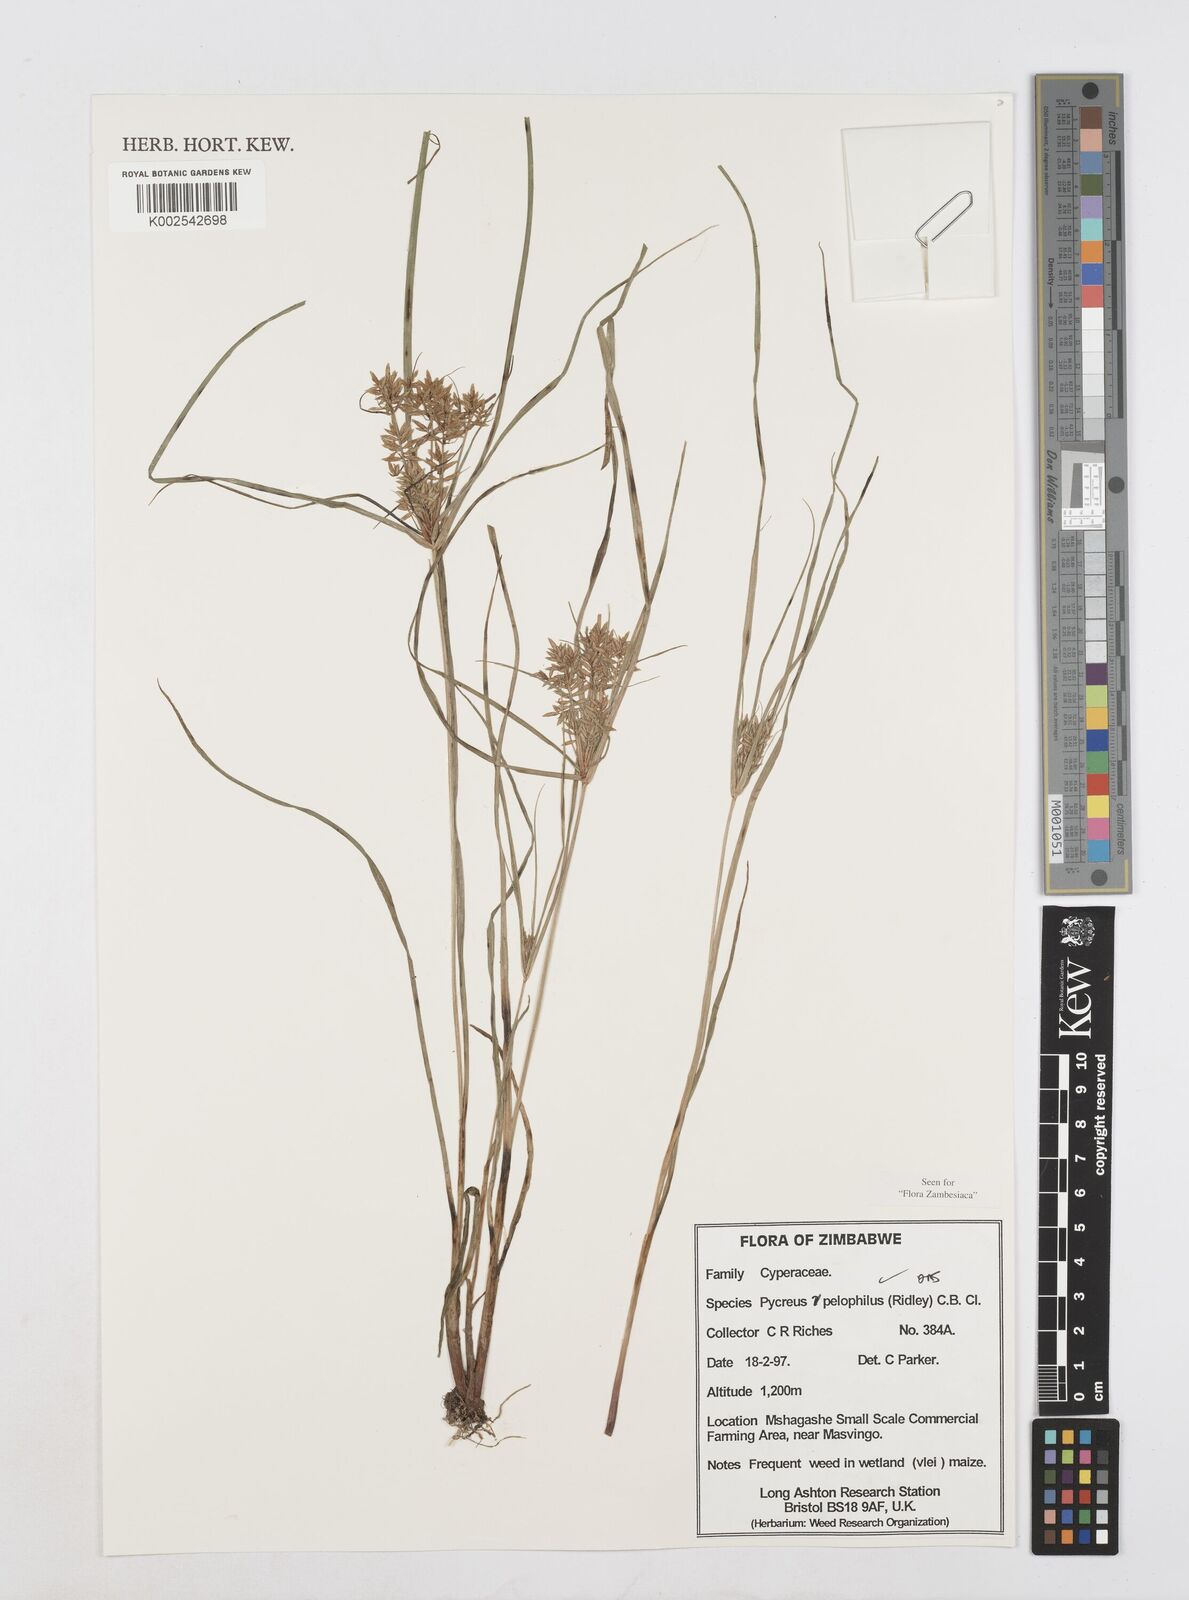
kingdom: Plantae
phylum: Tracheophyta
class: Liliopsida
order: Poales
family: Cyperaceae
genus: Cyperus
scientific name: Cyperus pelophilus
